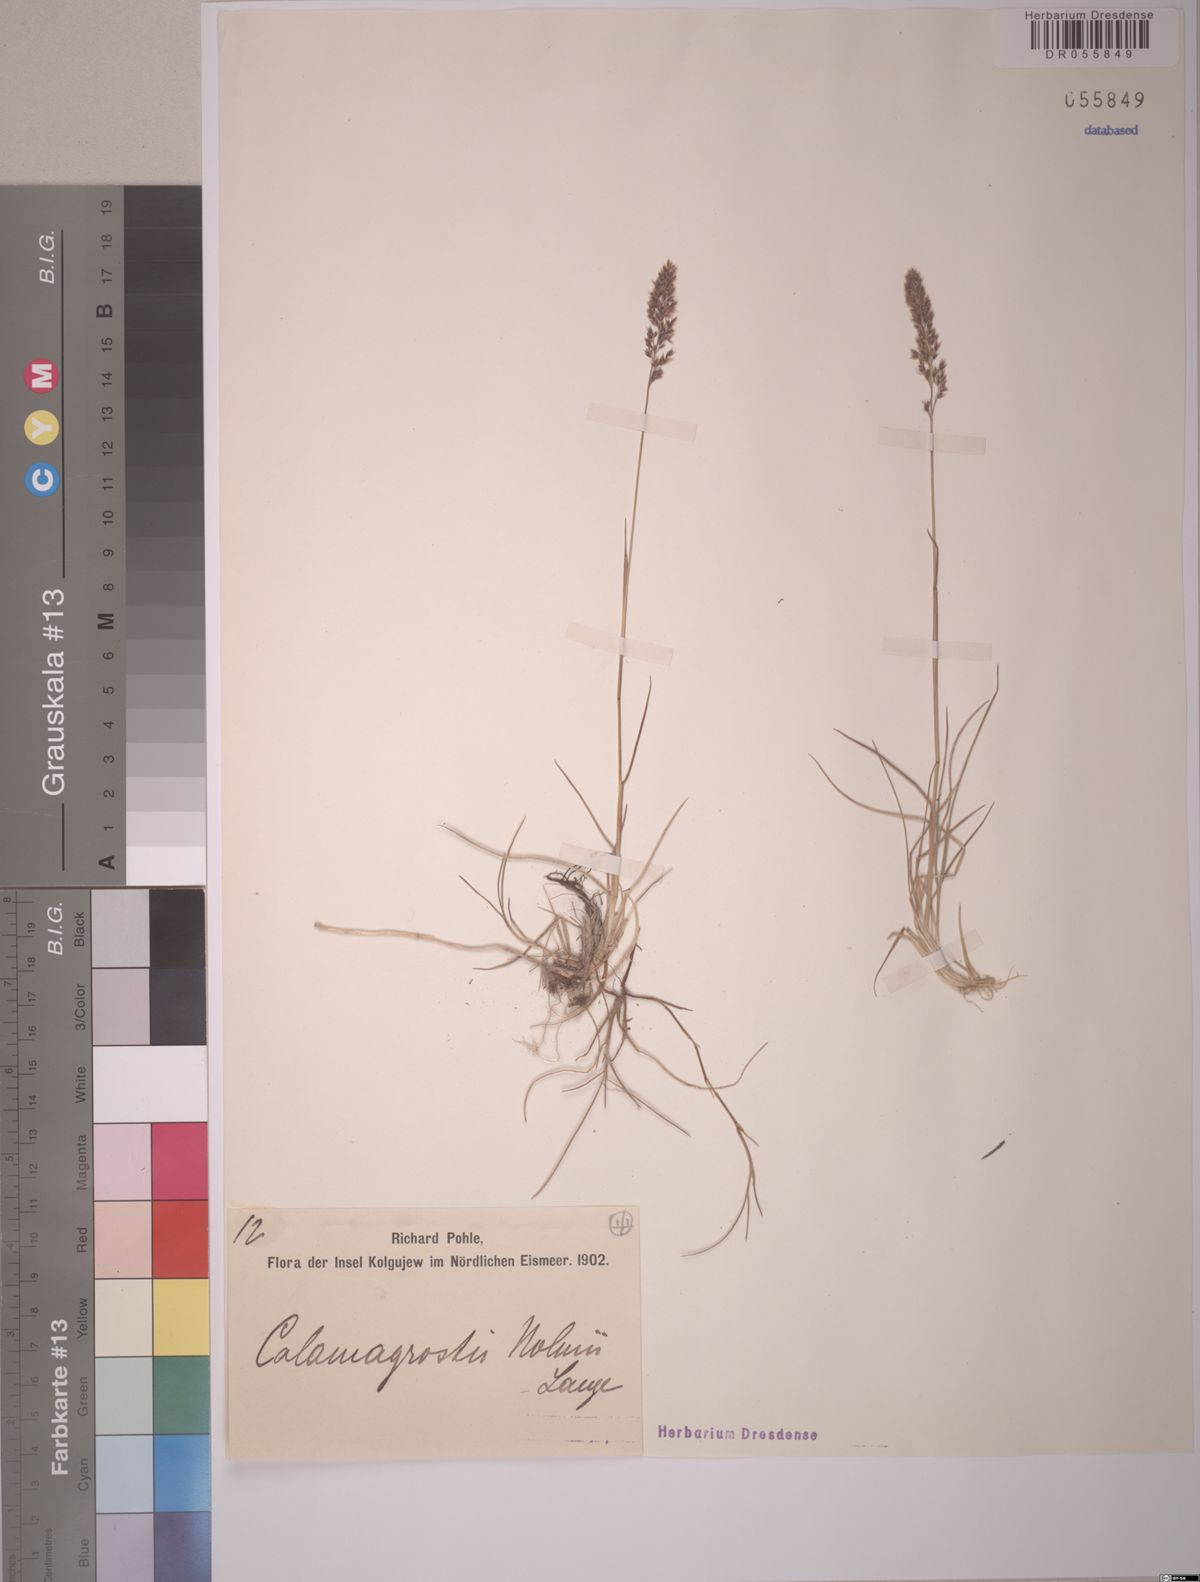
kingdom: Plantae
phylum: Tracheophyta
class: Liliopsida
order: Poales
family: Poaceae
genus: Calamagrostis
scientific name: Calamagrostis holmii
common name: Holm's reedgrass
